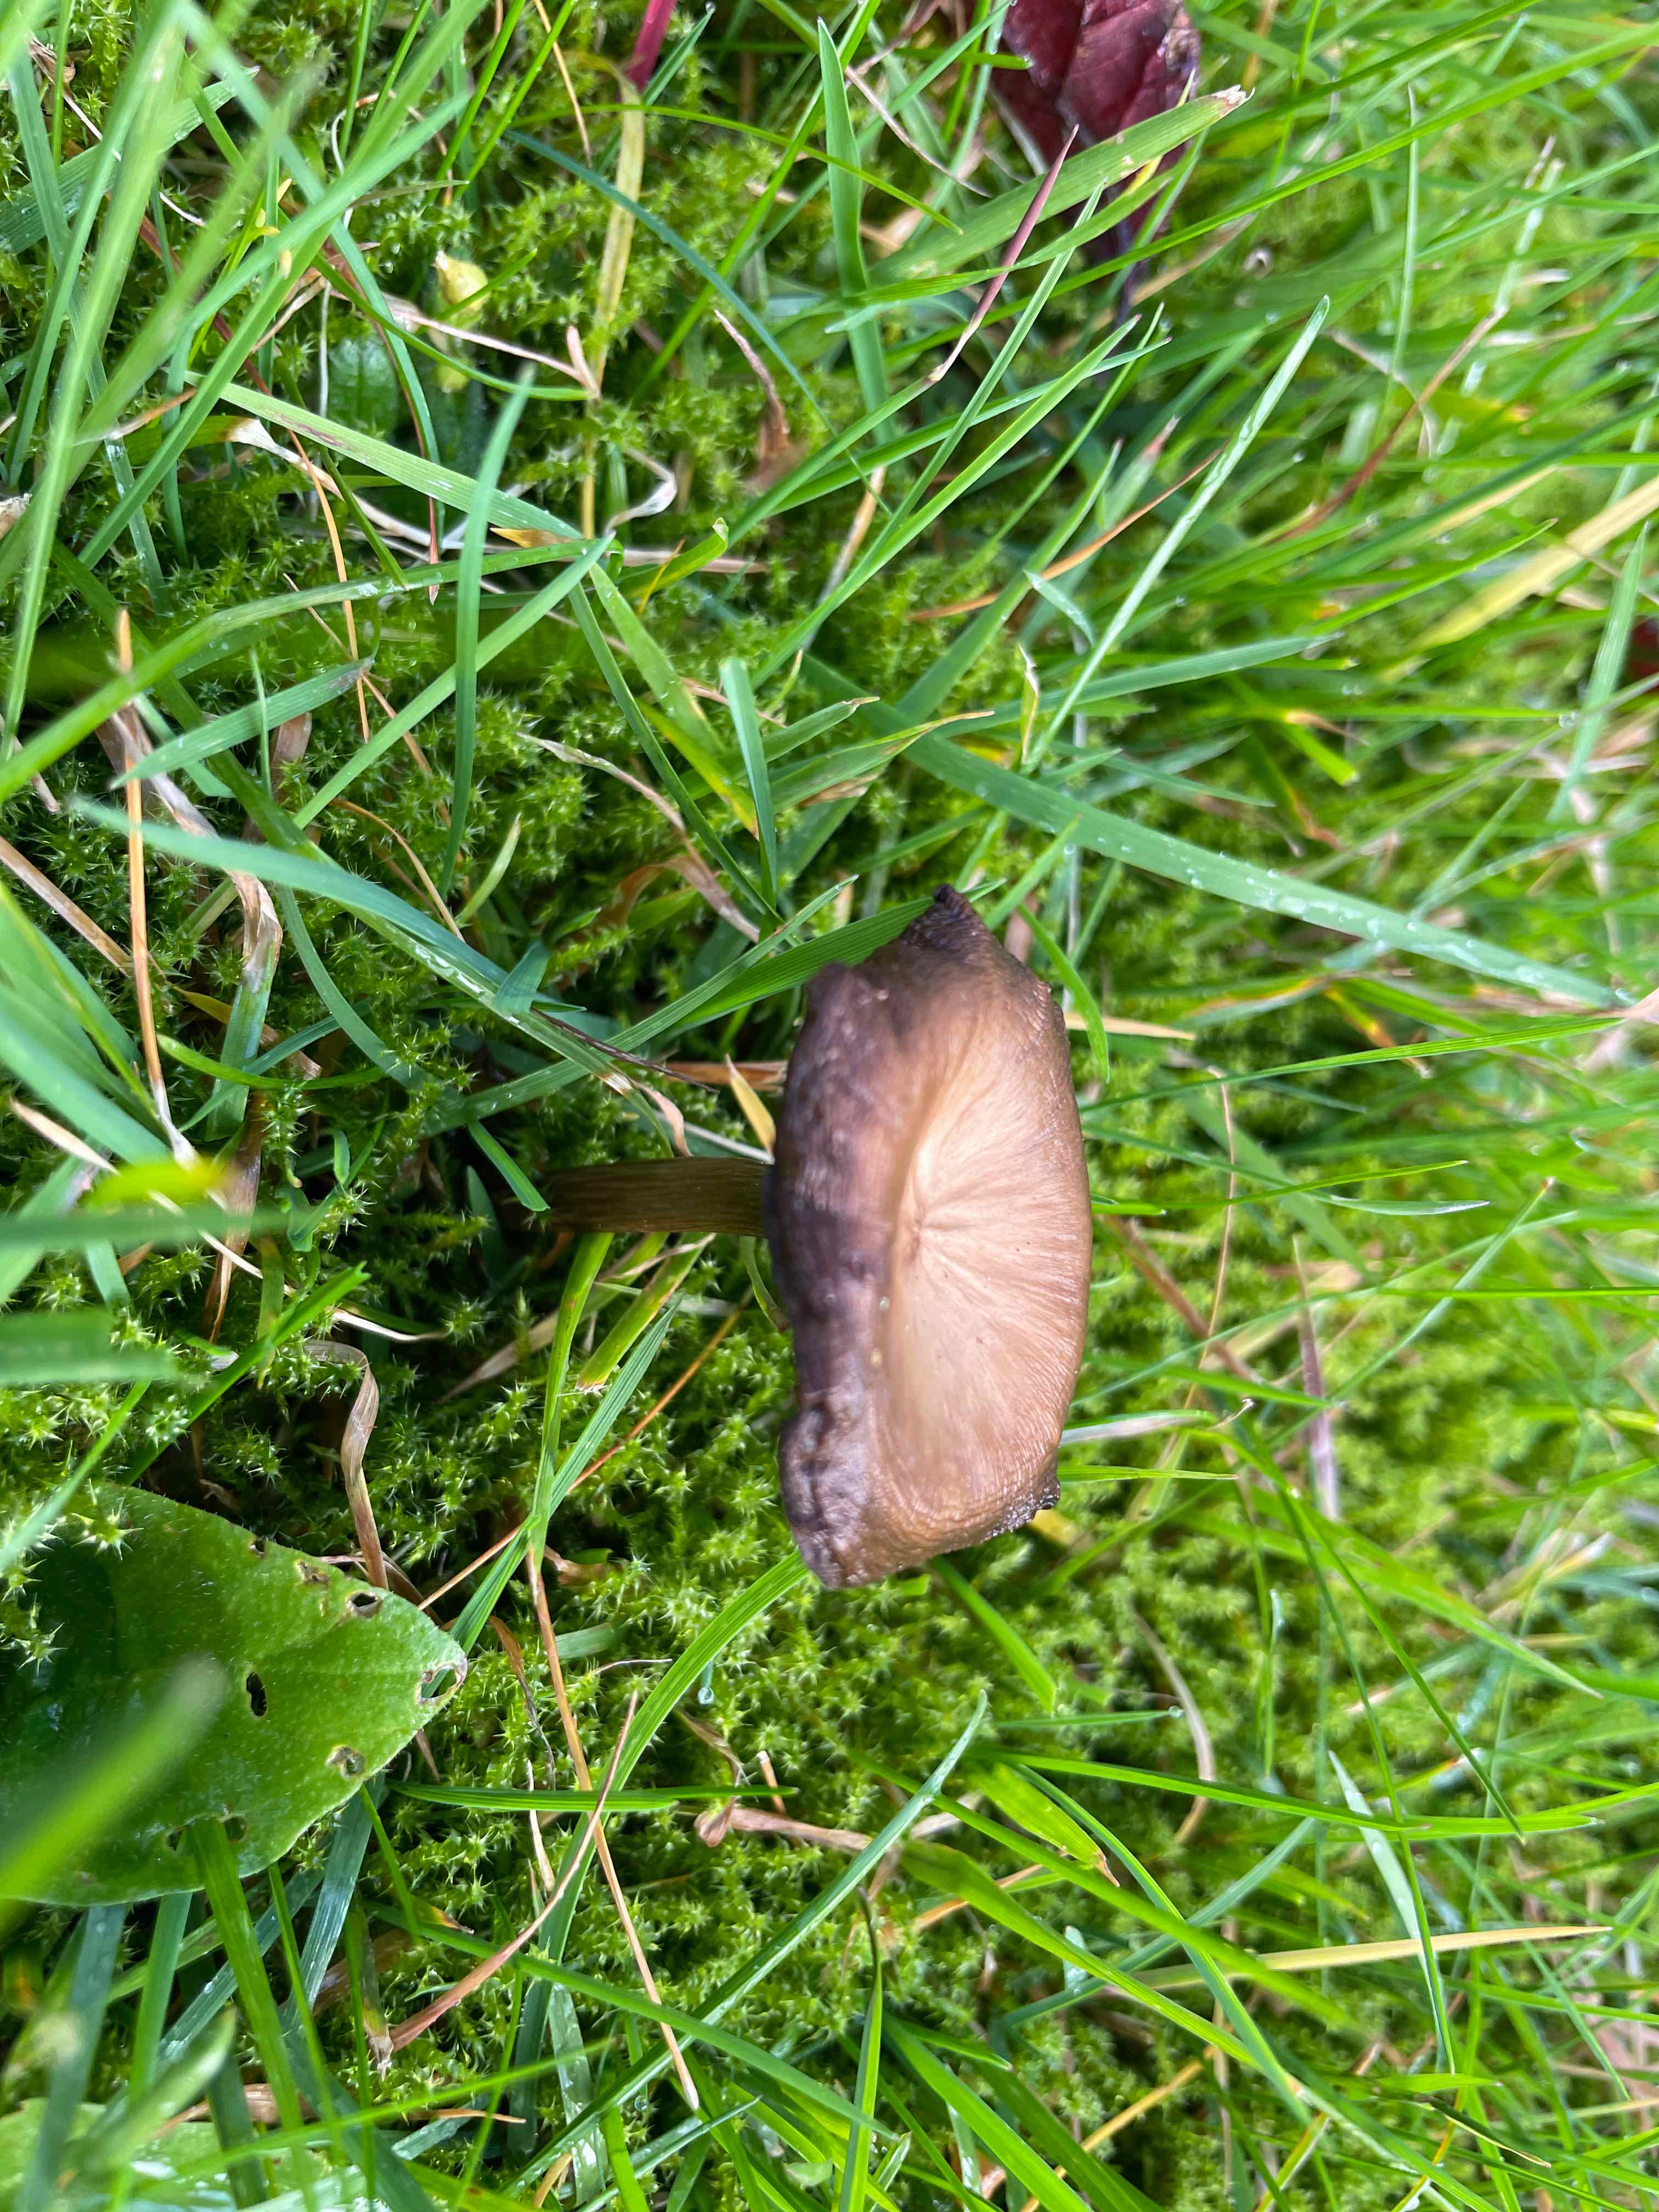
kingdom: Fungi
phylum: Basidiomycota
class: Agaricomycetes
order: Agaricales
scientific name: Agaricales
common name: champignonordenen
